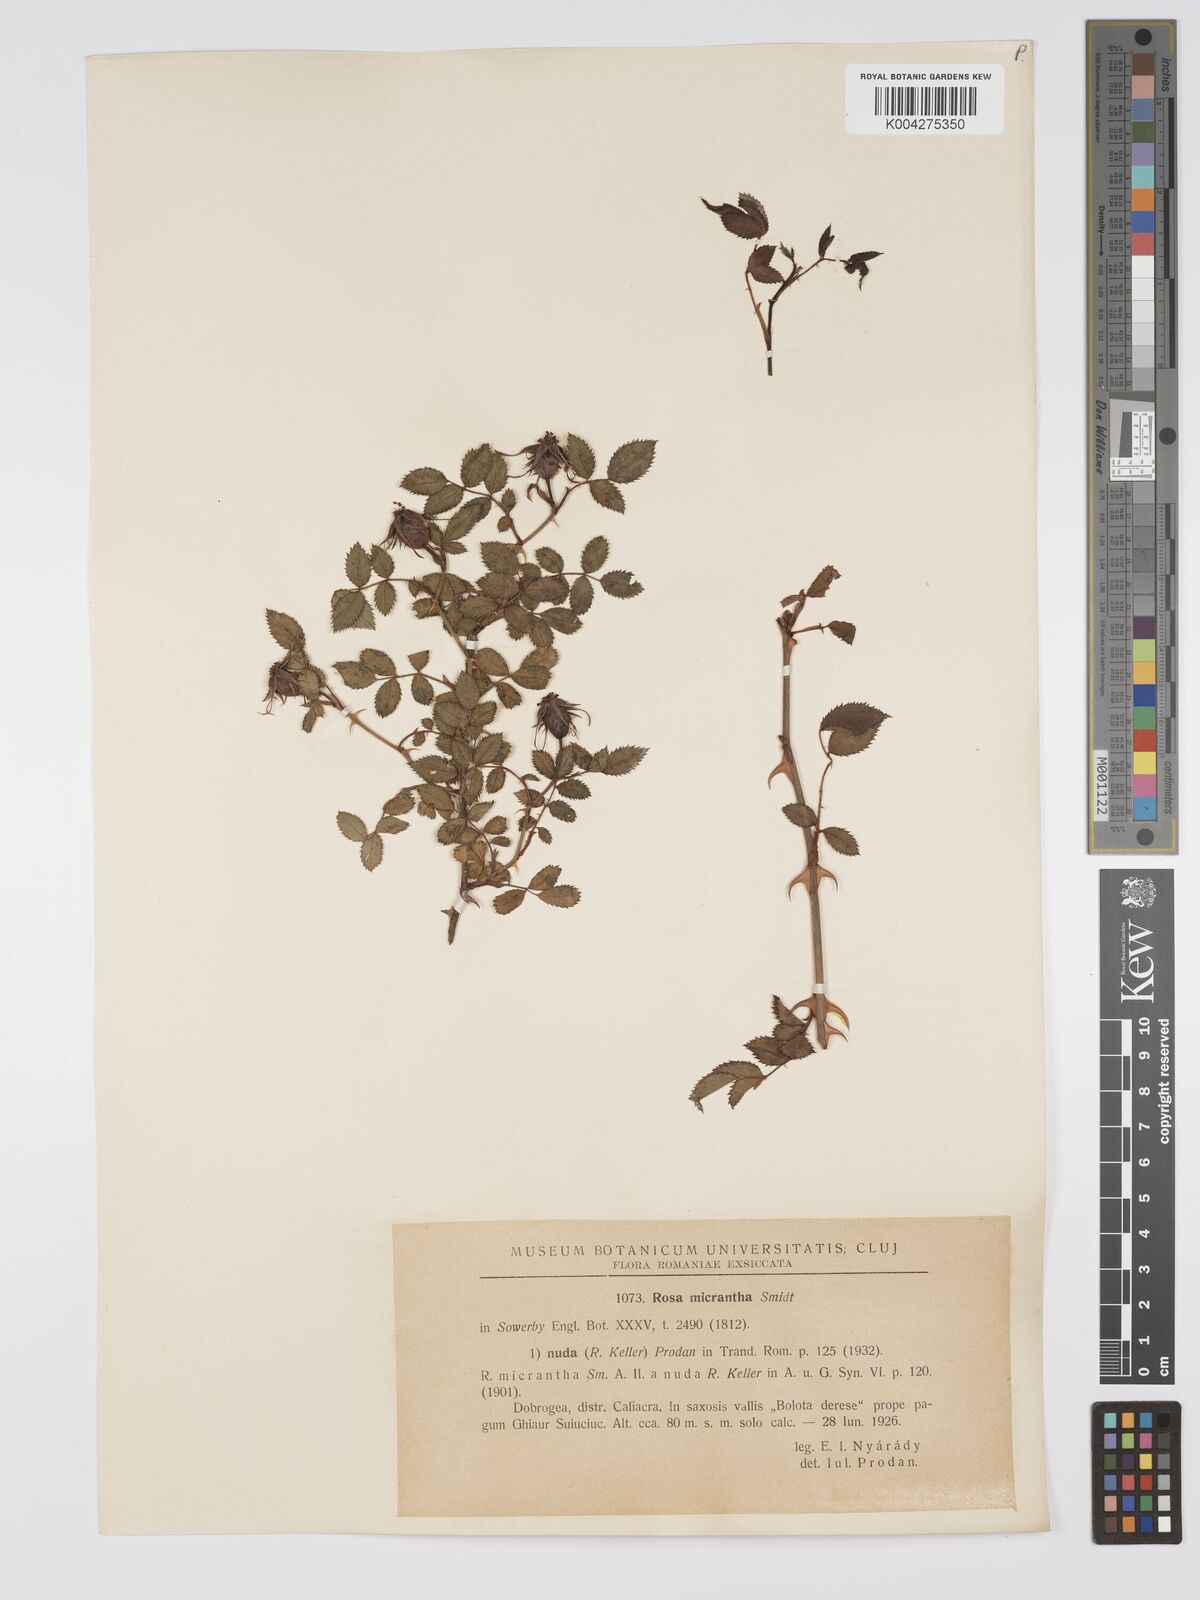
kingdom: Plantae
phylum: Tracheophyta
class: Magnoliopsida
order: Rosales
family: Rosaceae
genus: Rosa
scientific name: Rosa
